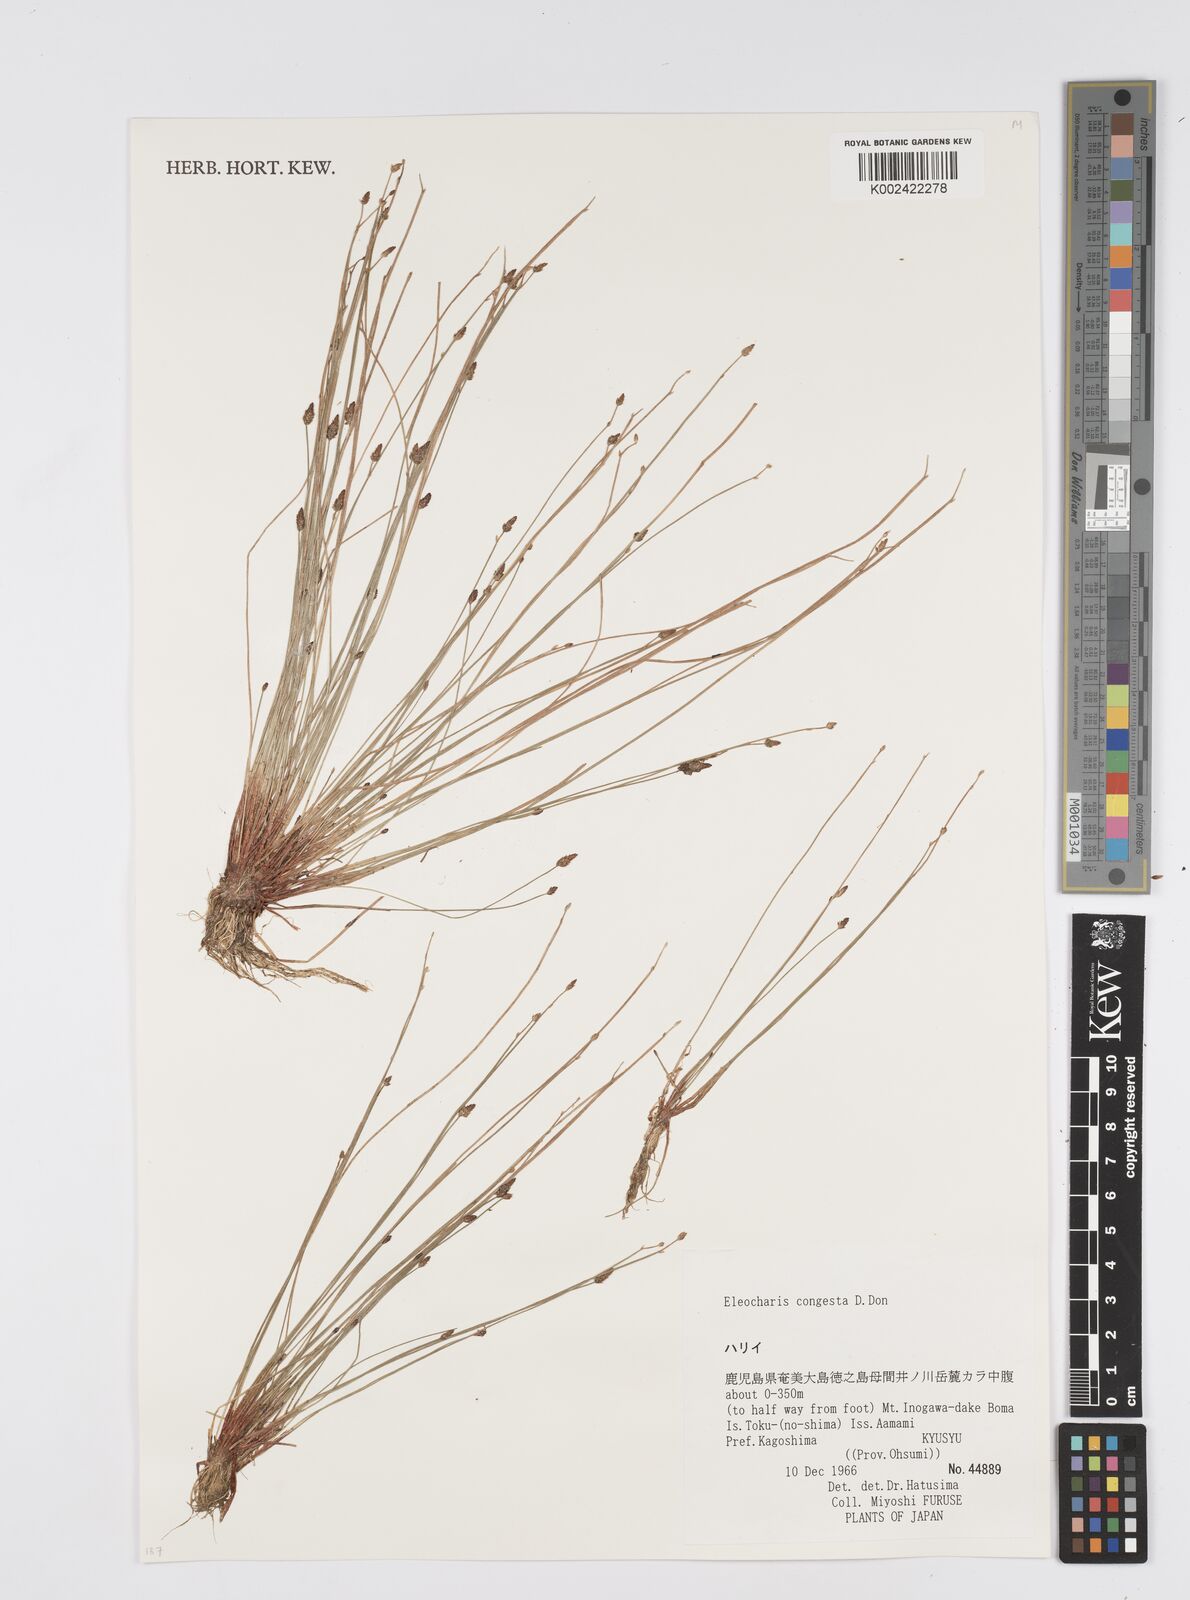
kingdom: Plantae
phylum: Tracheophyta
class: Liliopsida
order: Poales
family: Cyperaceae
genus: Eleocharis
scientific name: Eleocharis congesta
